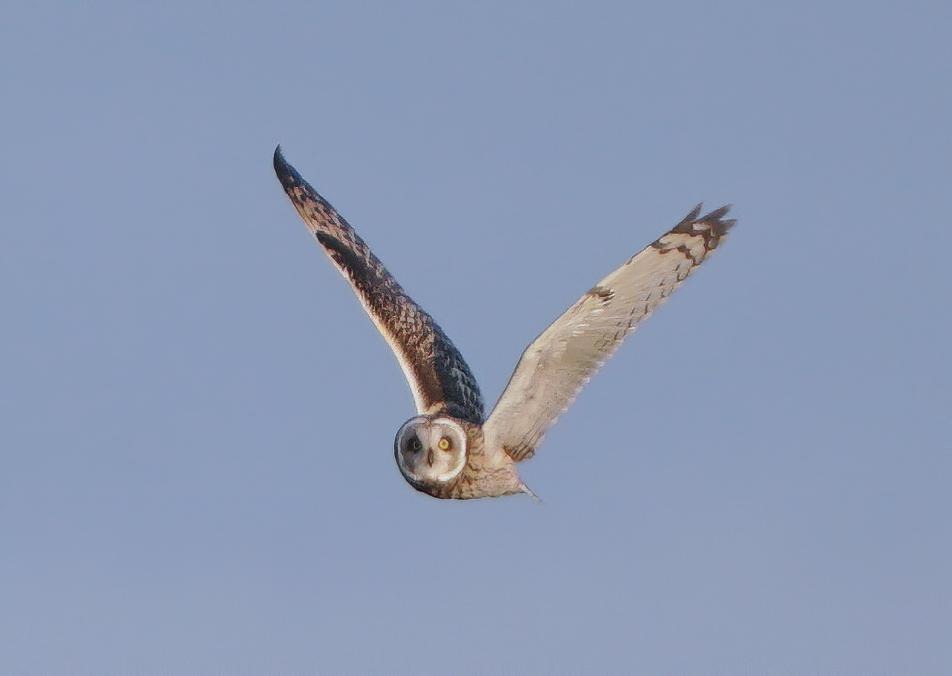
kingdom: Animalia
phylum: Chordata
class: Aves
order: Strigiformes
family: Strigidae
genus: Asio
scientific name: Asio flammeus
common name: Mosehornugle
